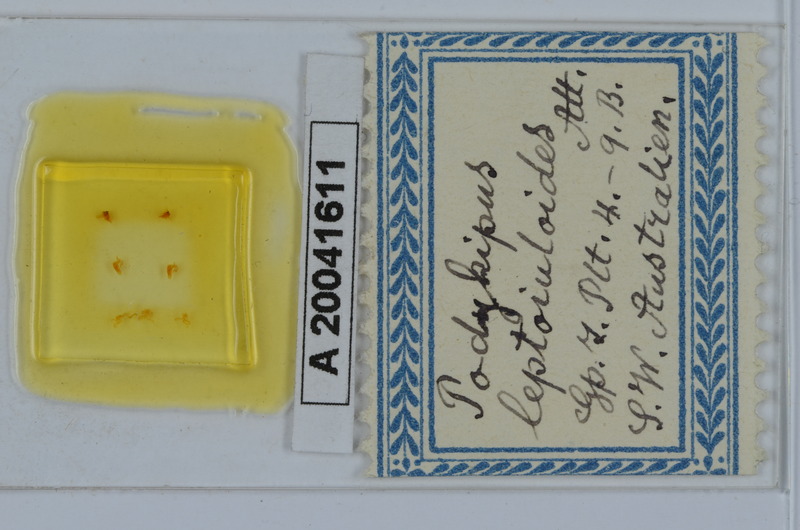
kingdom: Animalia
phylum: Arthropoda
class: Diplopoda
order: Spirostreptida
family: Iulomorphidae
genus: Podykipus
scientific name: Podykipus leptoiuloides
